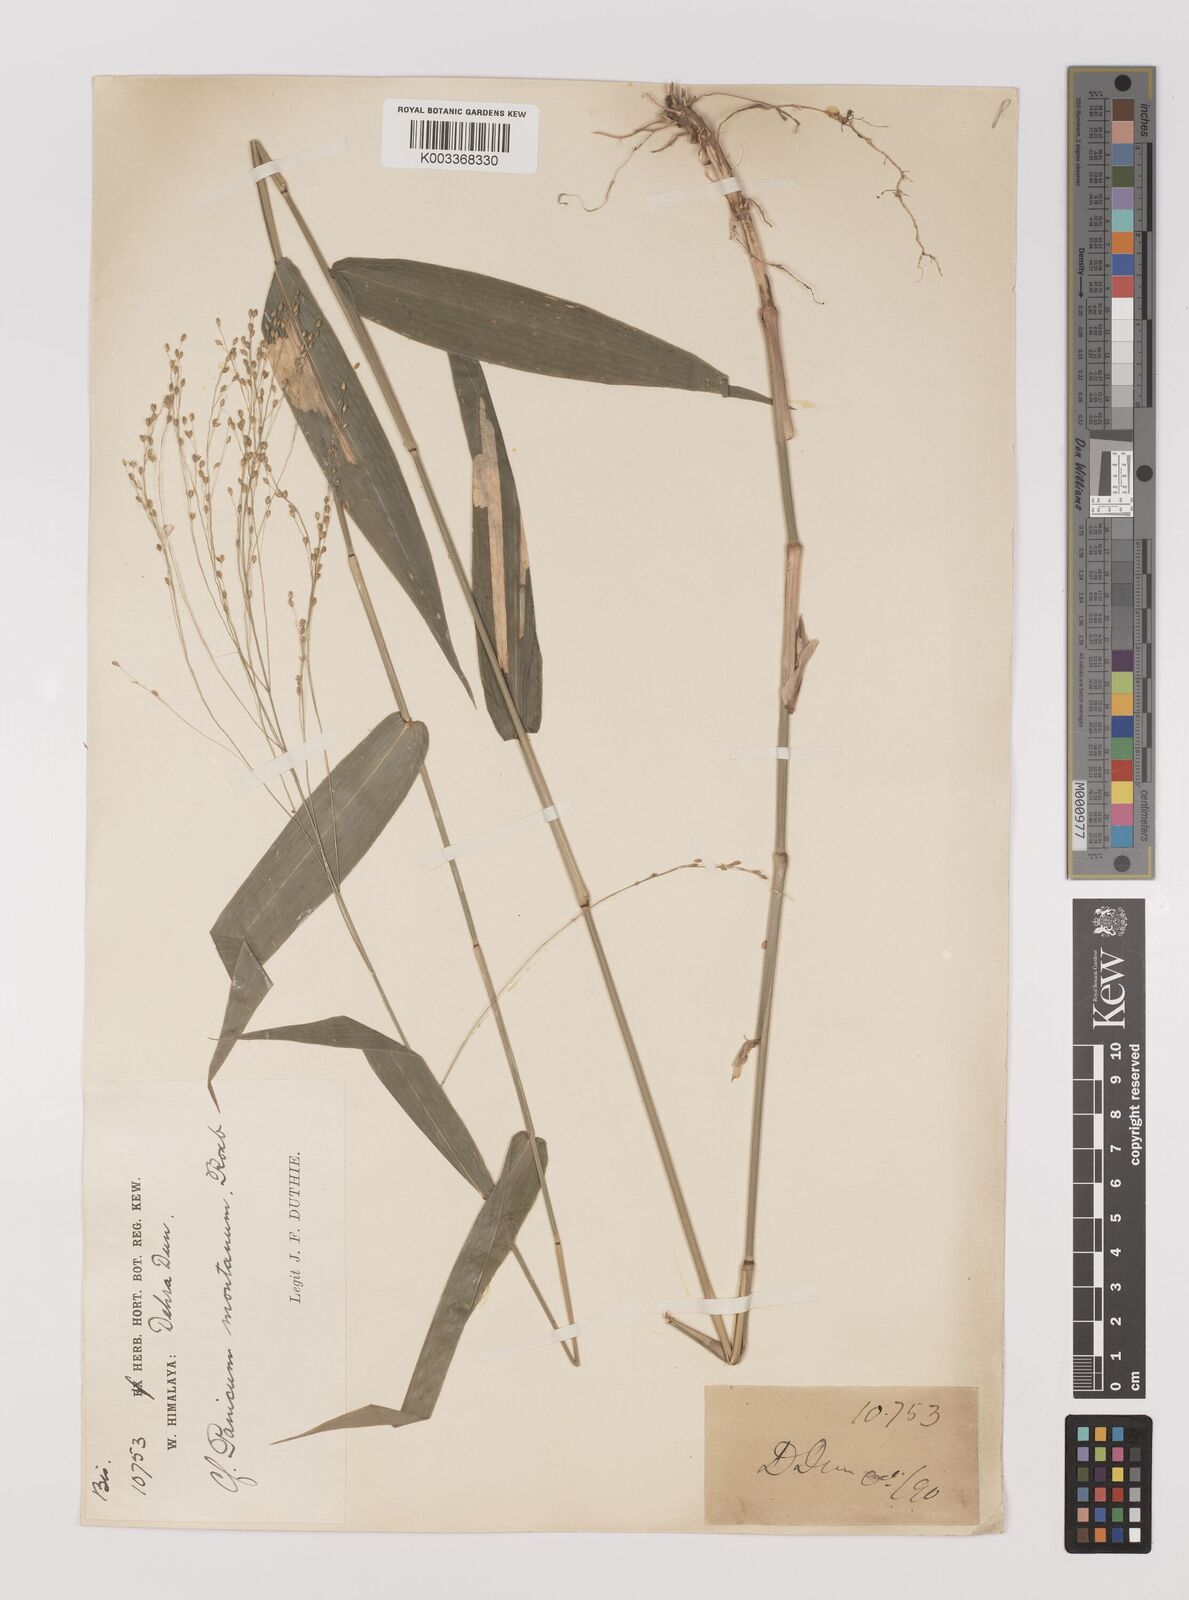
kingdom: Plantae
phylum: Tracheophyta
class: Liliopsida
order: Poales
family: Poaceae
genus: Panicum
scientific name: Panicum notatum
